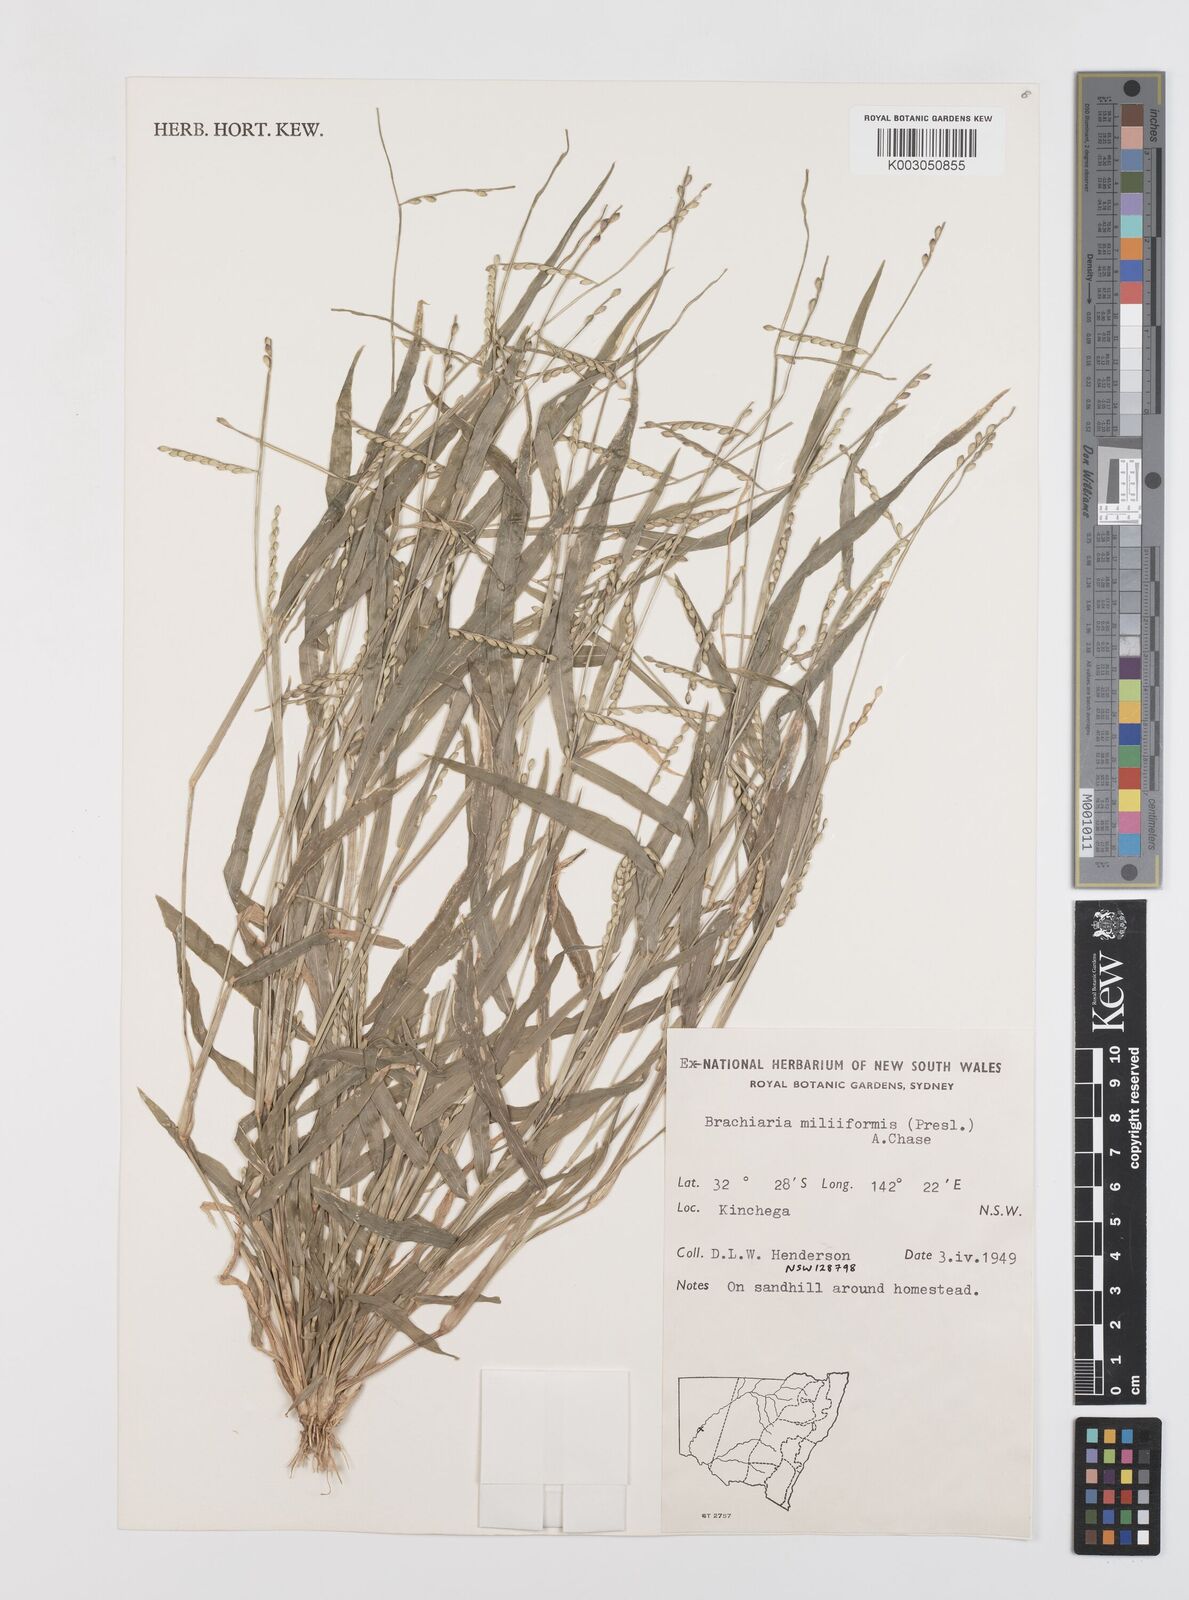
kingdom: Plantae
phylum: Tracheophyta
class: Liliopsida
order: Poales
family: Poaceae
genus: Urochloa
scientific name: Urochloa subquadripara
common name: Armgrass millet
